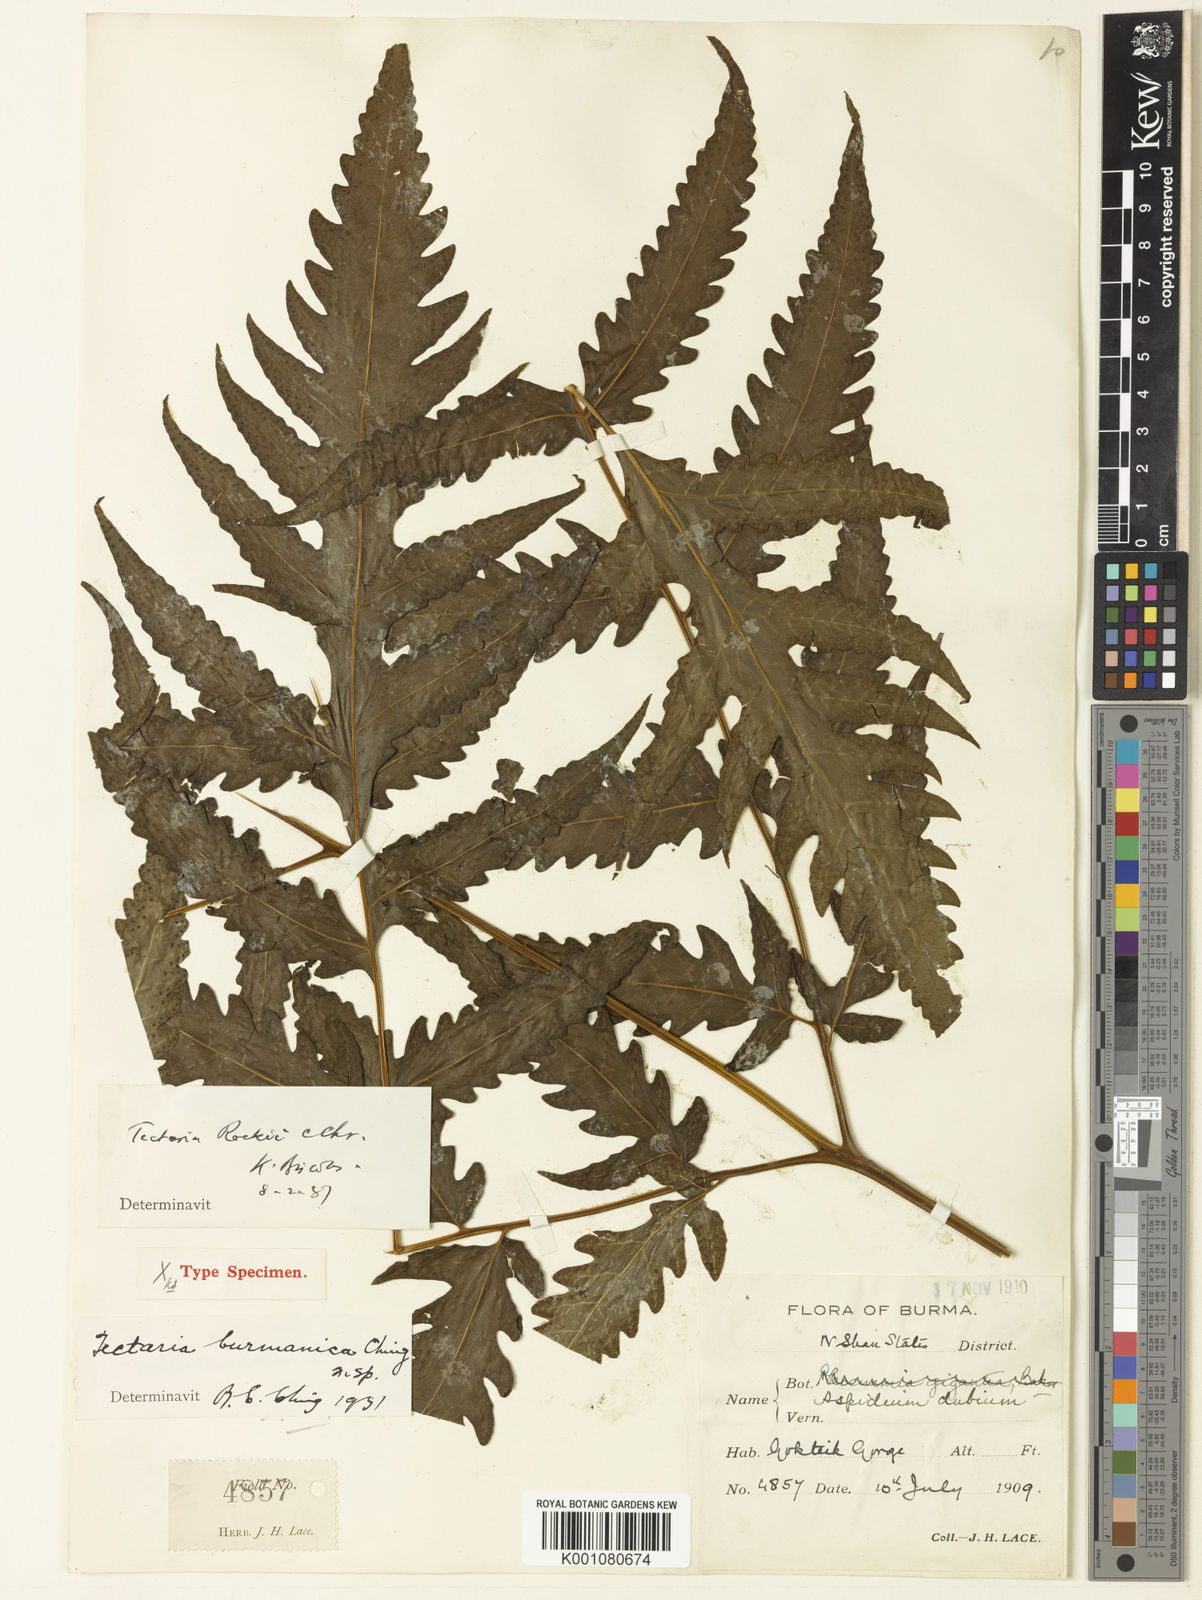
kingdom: Plantae
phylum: Tracheophyta
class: Polypodiopsida
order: Polypodiales
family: Tectariaceae
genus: Tectaria
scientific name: Tectaria rockii
